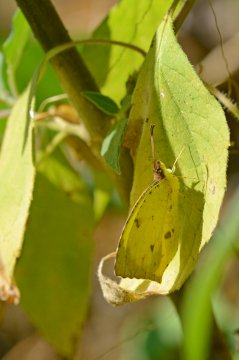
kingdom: Animalia
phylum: Arthropoda
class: Insecta
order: Lepidoptera
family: Pieridae
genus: Eurema
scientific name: Eurema salome
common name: Salome Yellow
